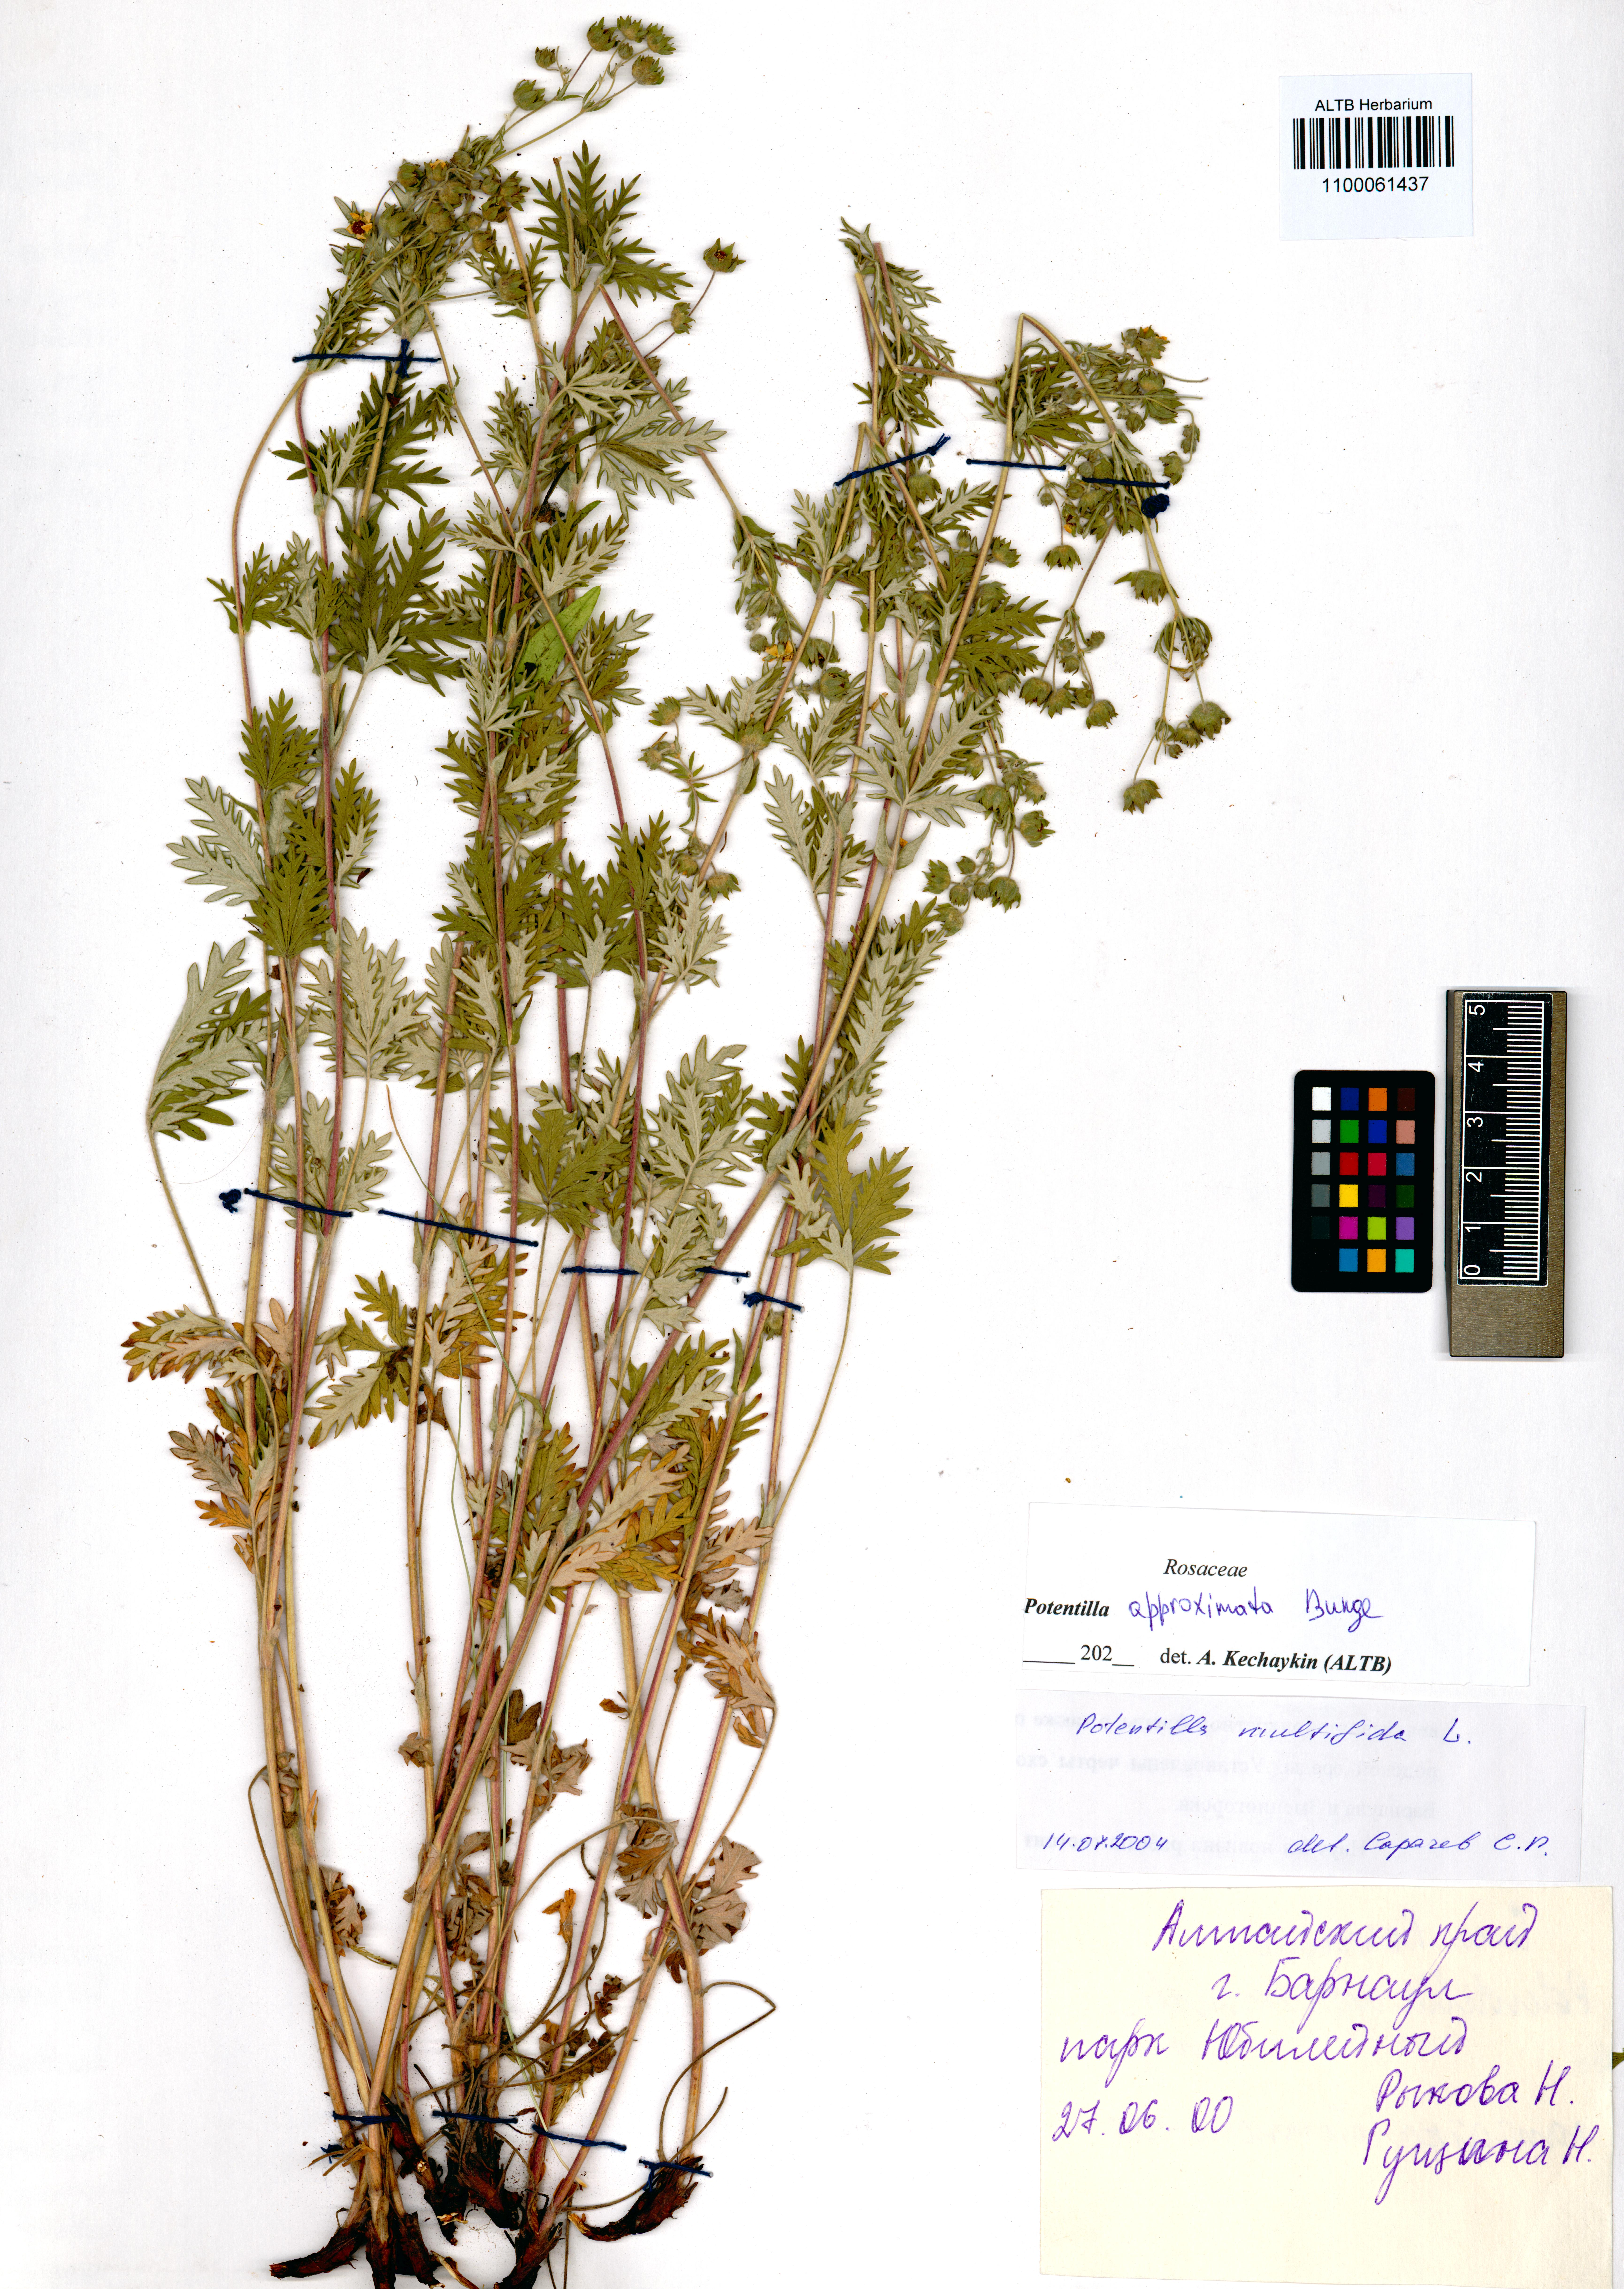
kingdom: Plantae
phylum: Tracheophyta
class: Magnoliopsida
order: Rosales
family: Rosaceae
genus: Potentilla
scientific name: Potentilla conferta
